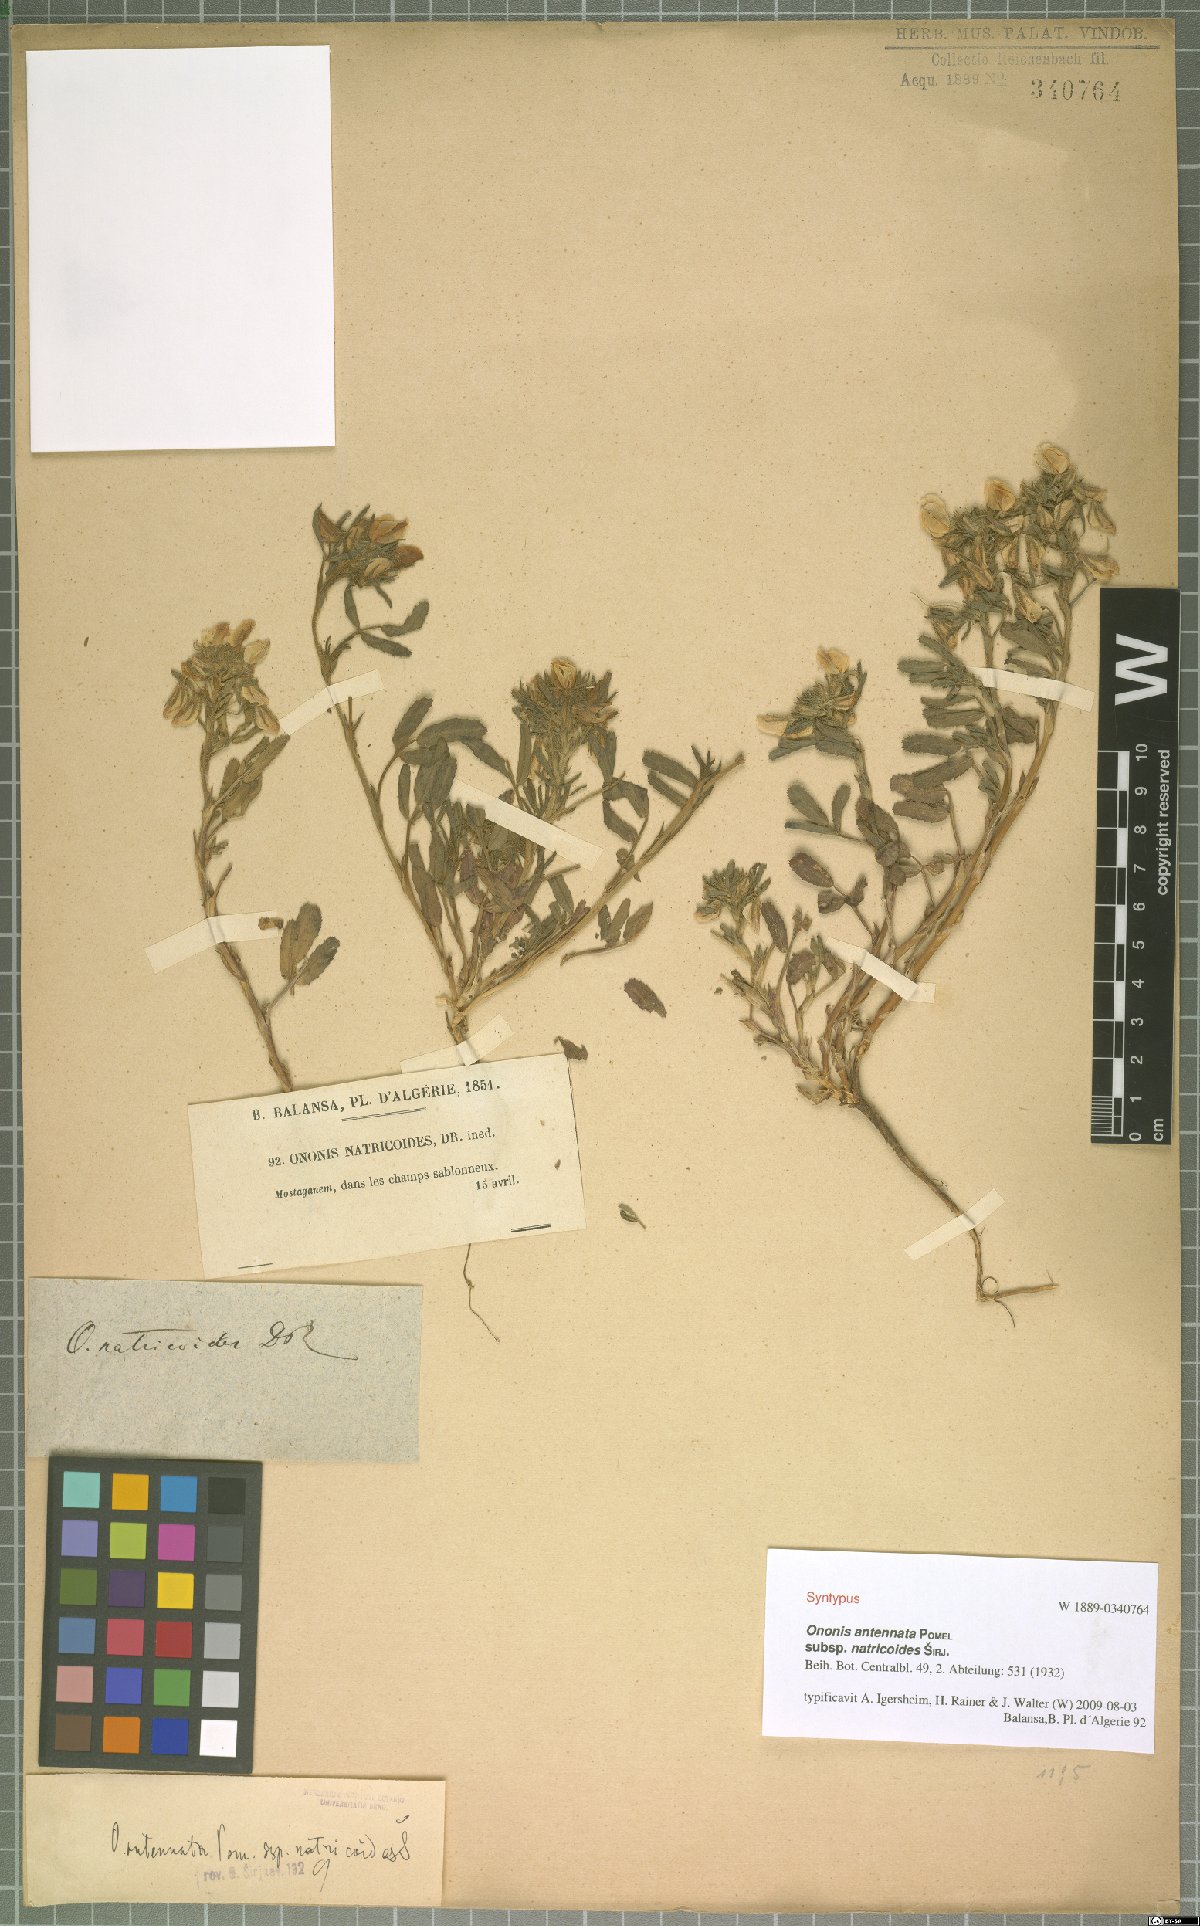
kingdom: Plantae
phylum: Tracheophyta
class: Magnoliopsida
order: Fabales
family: Fabaceae
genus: Ononis
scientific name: Ononis antennata
